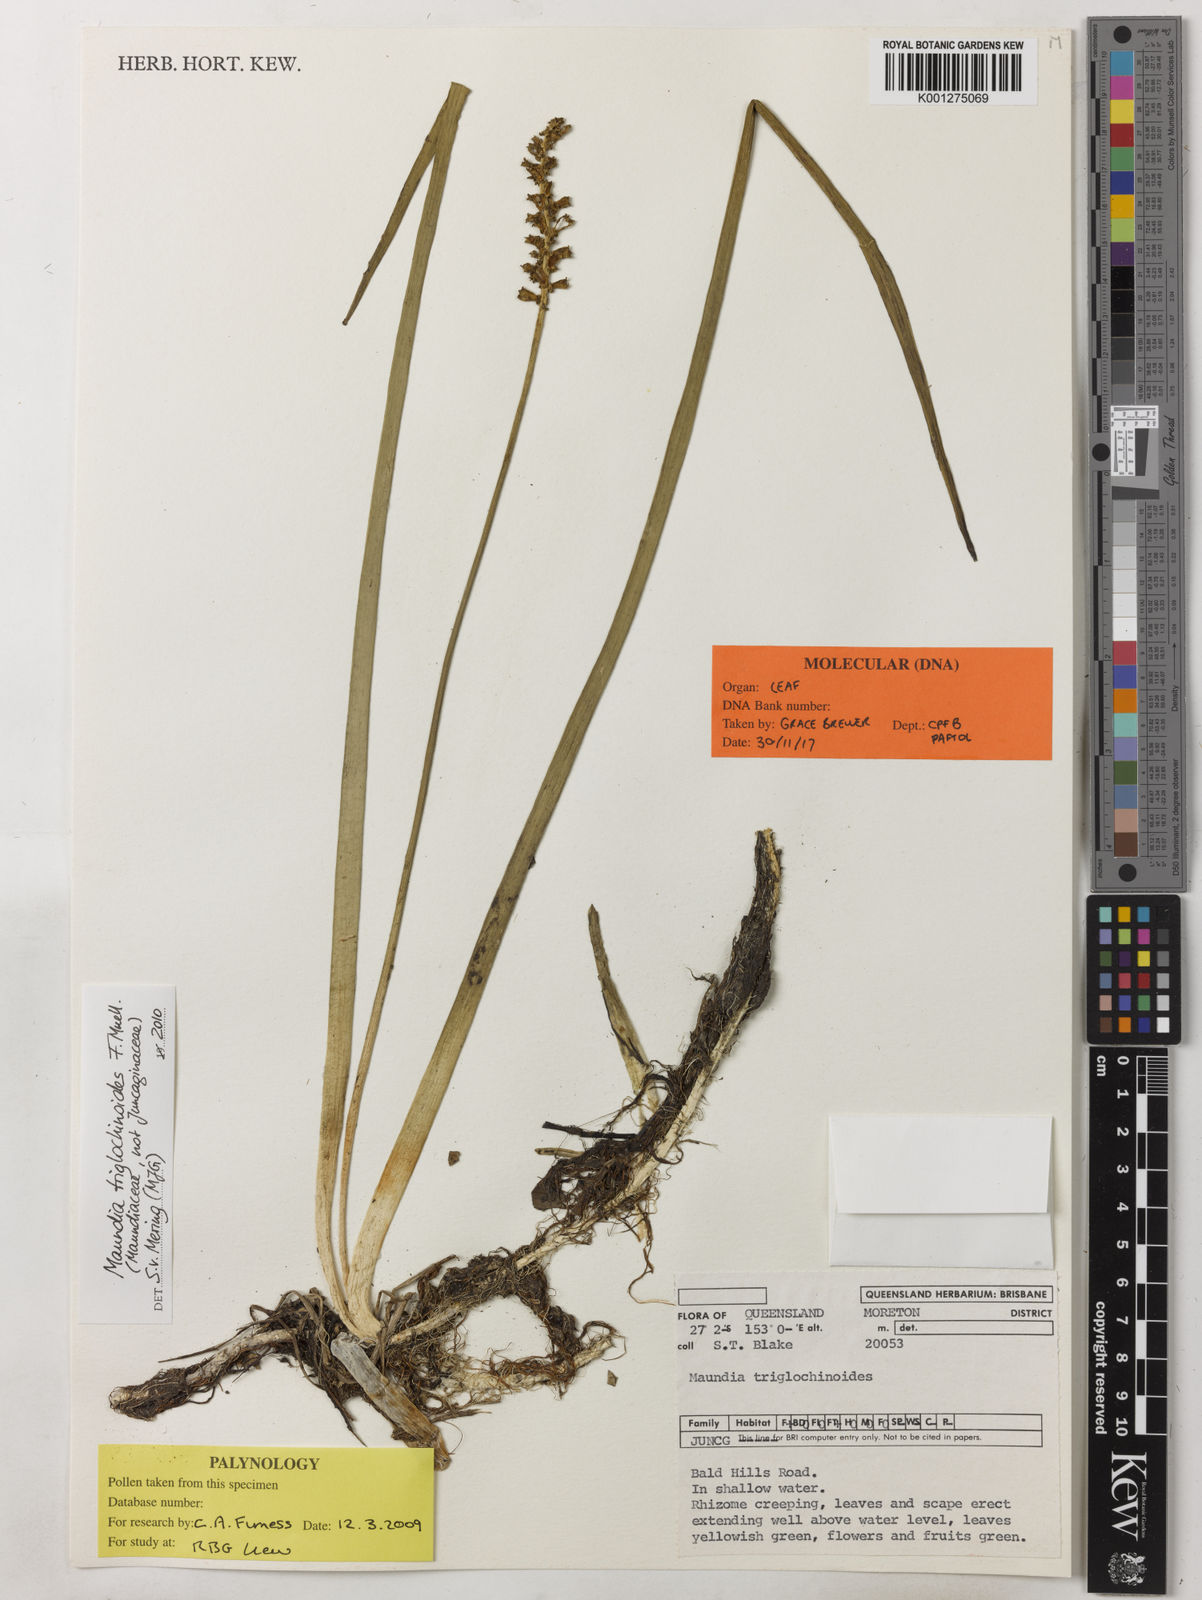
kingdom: Plantae
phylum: Tracheophyta
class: Liliopsida
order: Alismatales
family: Maundiaceae
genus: Maundia
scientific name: Maundia triglochinoides
